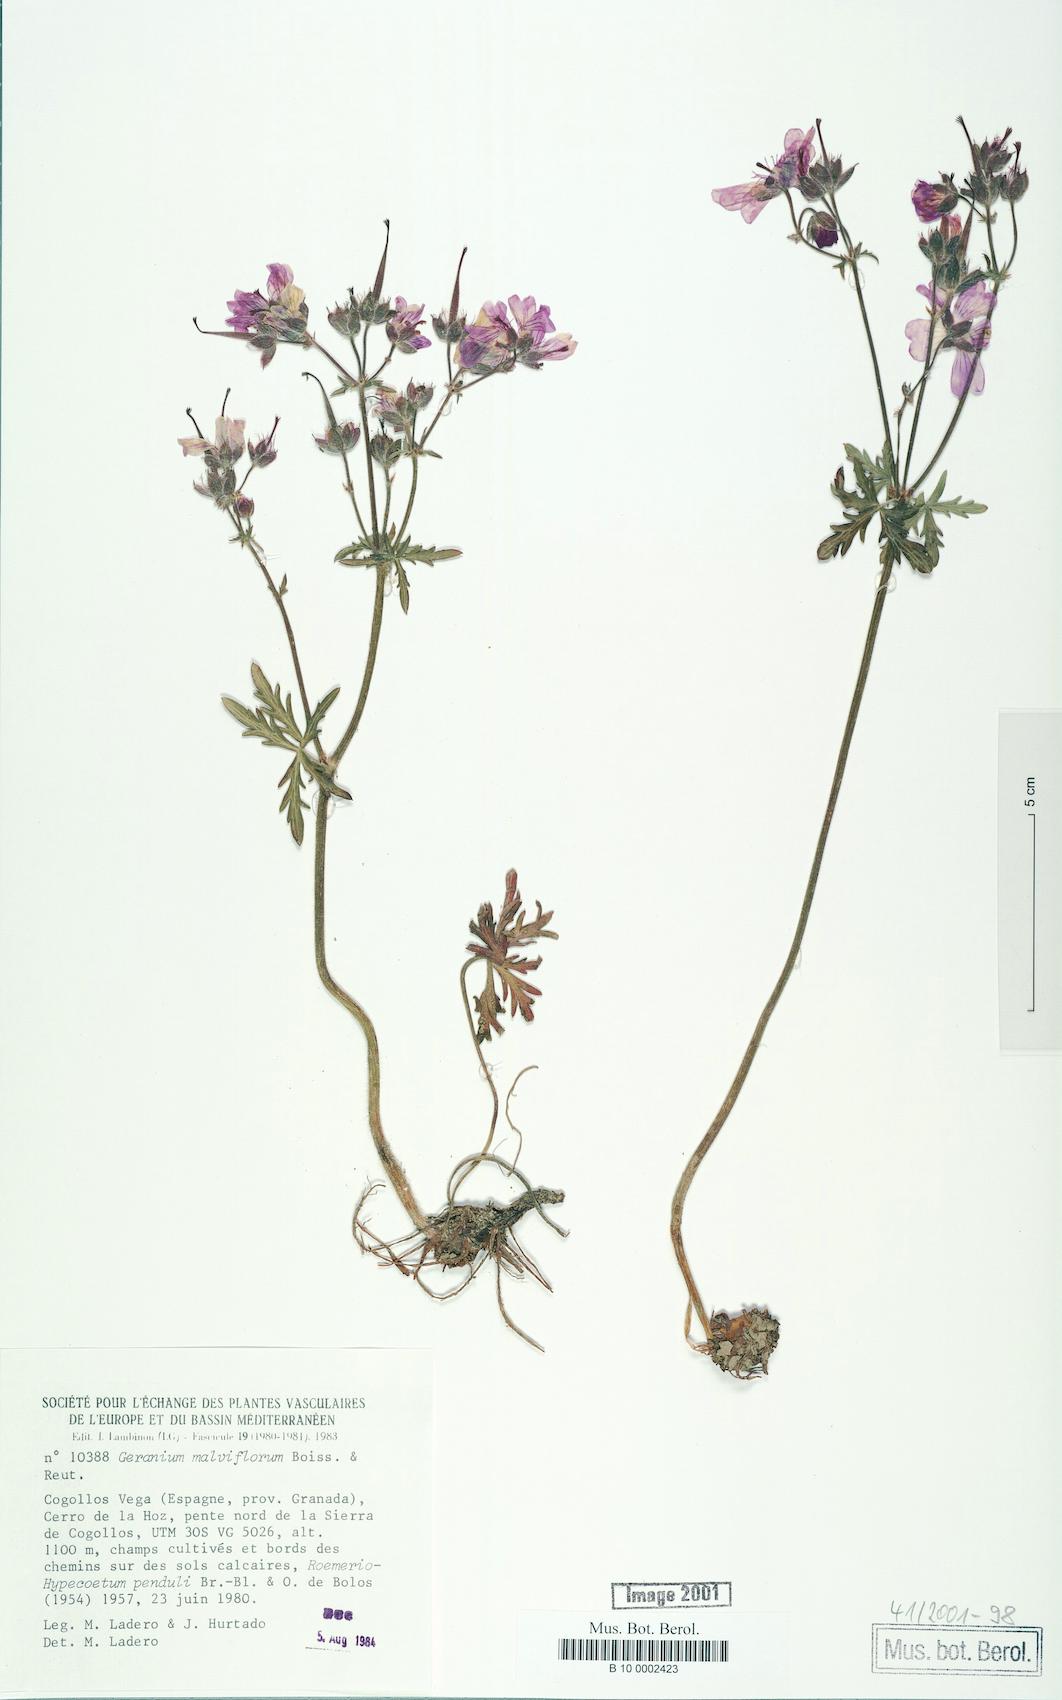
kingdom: Plantae
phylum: Tracheophyta
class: Magnoliopsida
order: Geraniales
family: Geraniaceae
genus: Geranium
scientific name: Geranium malviflorum
